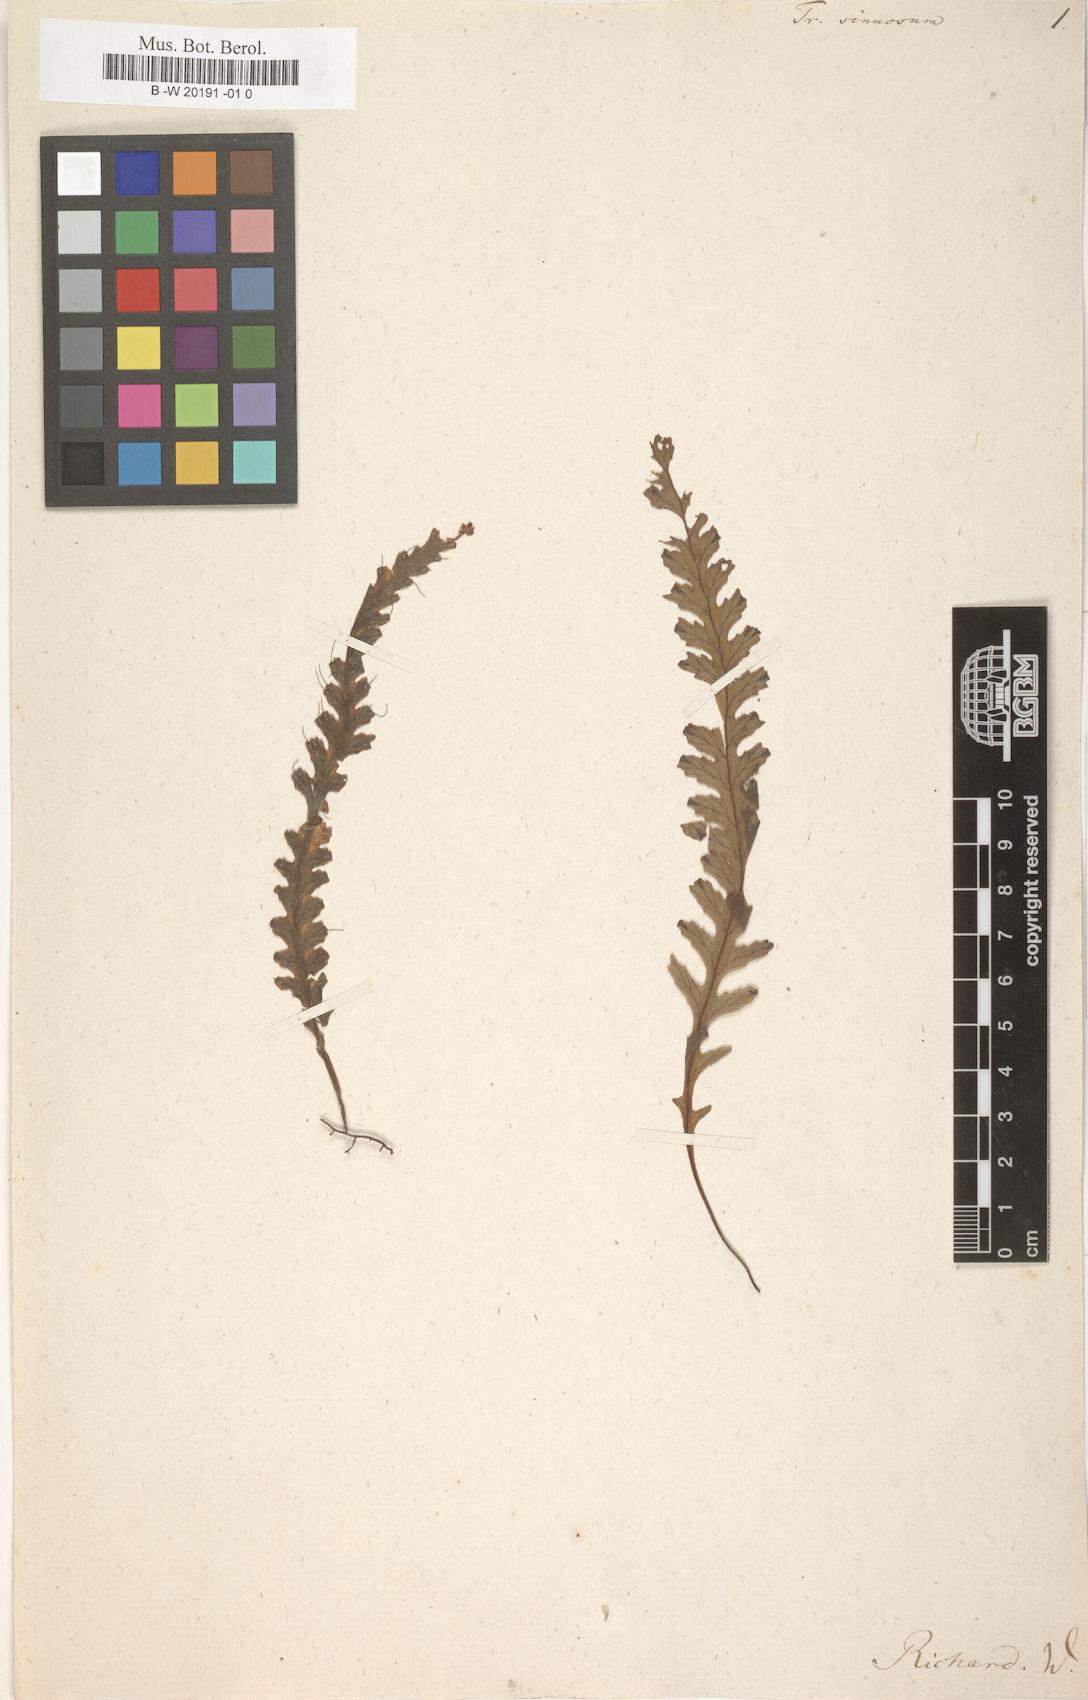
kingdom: Plantae
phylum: Tracheophyta
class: Polypodiopsida
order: Hymenophyllales
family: Hymenophyllaceae
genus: Trichomanes
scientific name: Trichomanes polypodioides
